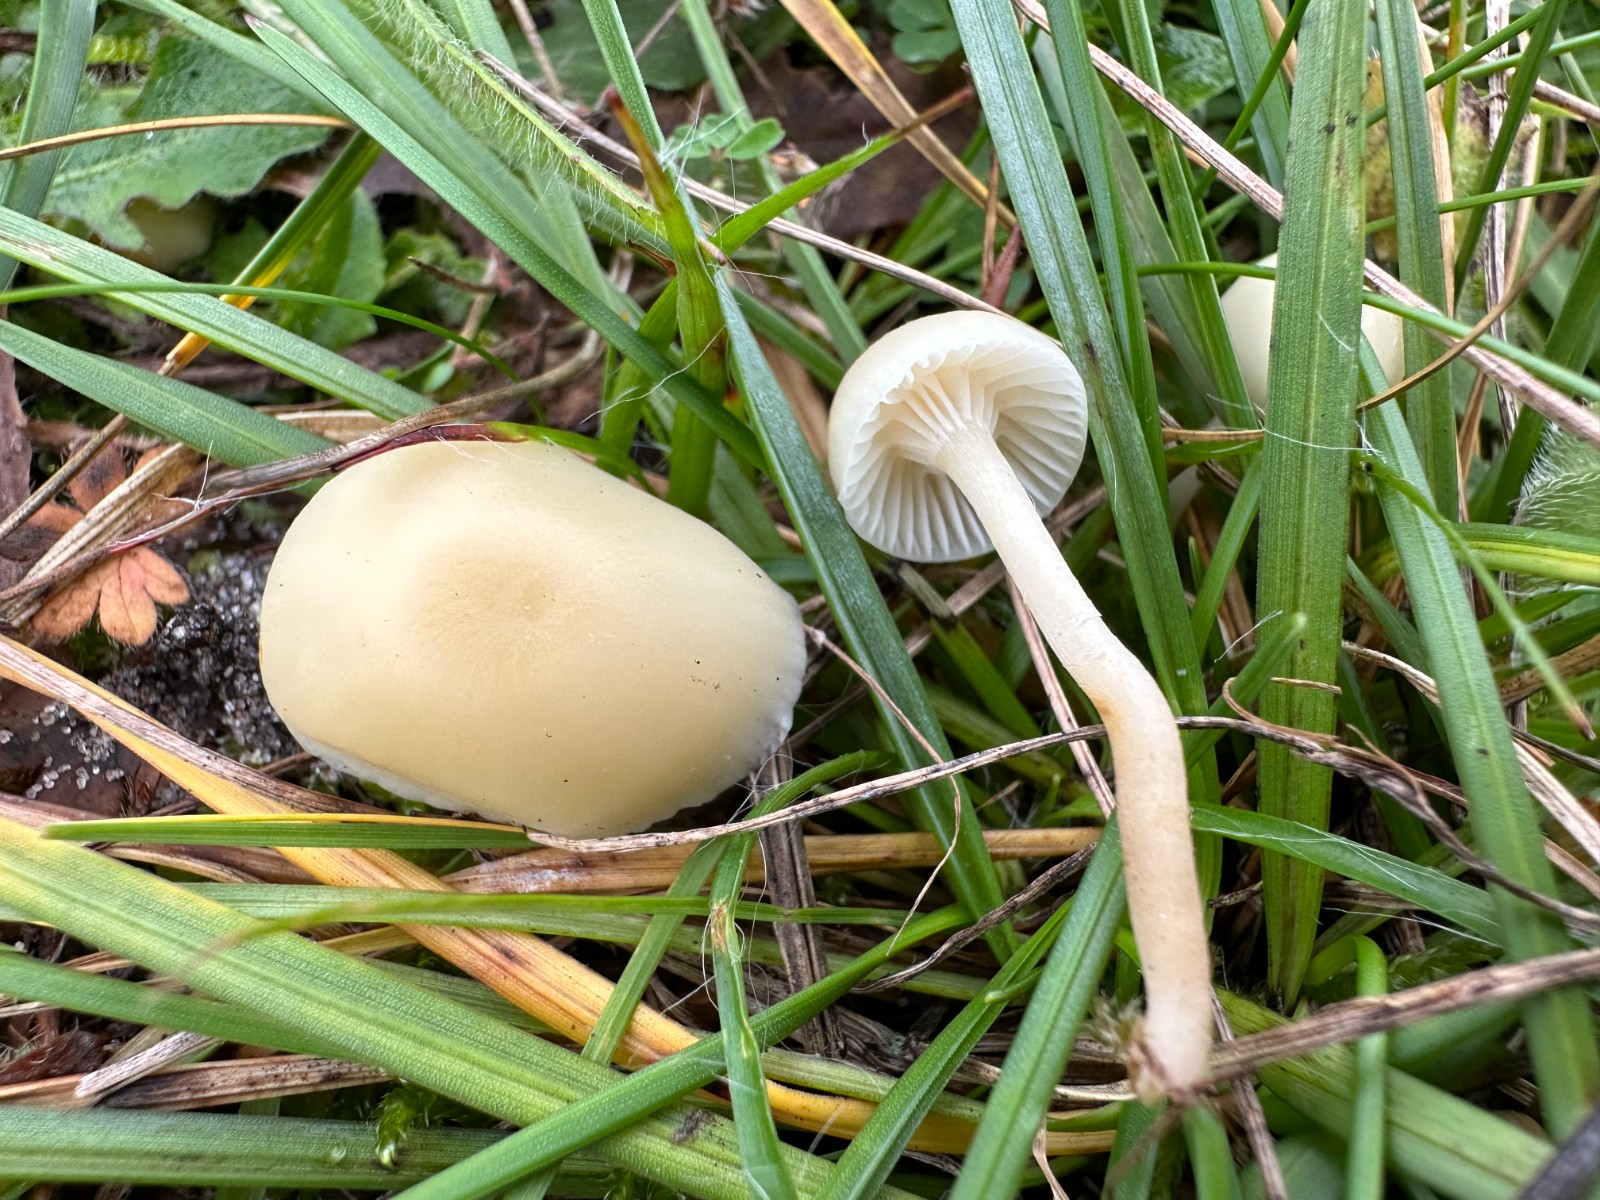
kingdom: Fungi
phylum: Basidiomycota
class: Agaricomycetes
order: Agaricales
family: Hygrophoraceae
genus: Cuphophyllus
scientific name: Cuphophyllus russocoriaceus
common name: ruslæder-vokshat
